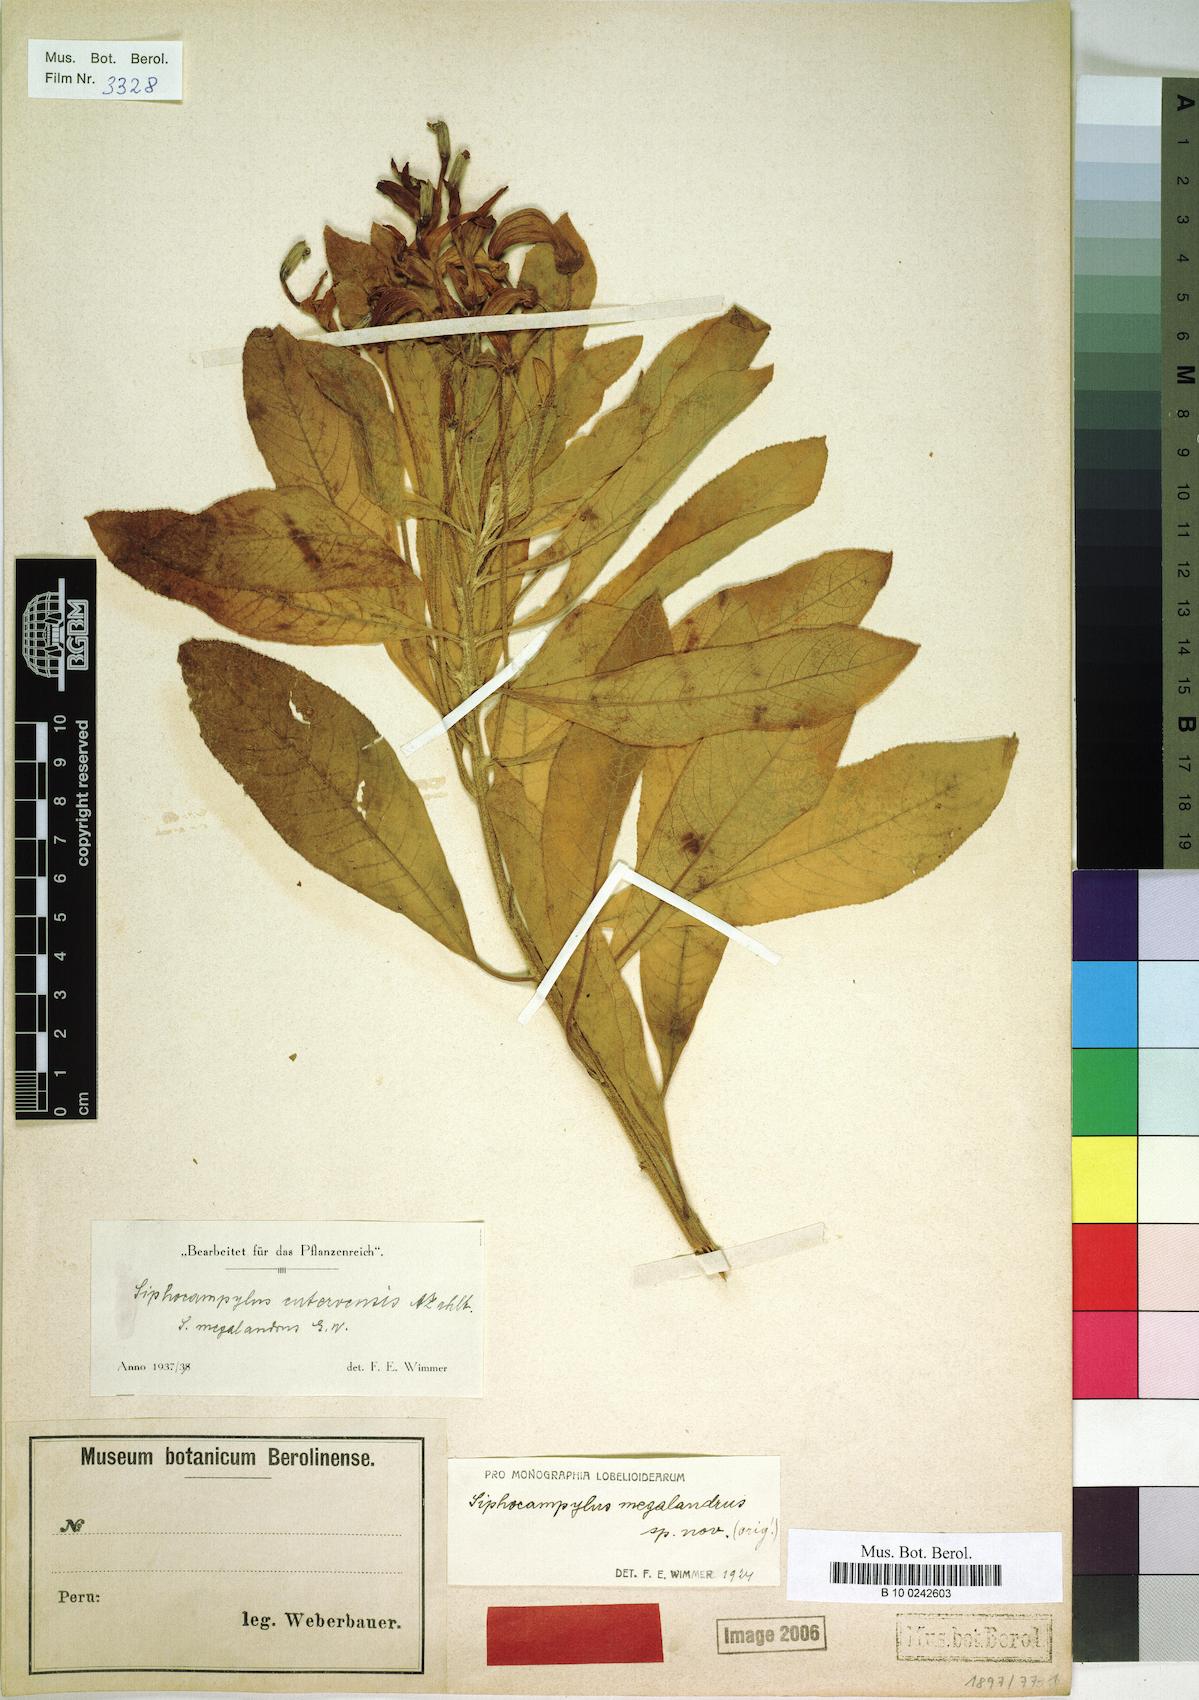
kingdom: Plantae
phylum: Tracheophyta
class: Magnoliopsida
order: Asterales
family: Campanulaceae
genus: Siphocampylus
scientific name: Siphocampylus cutervensis
